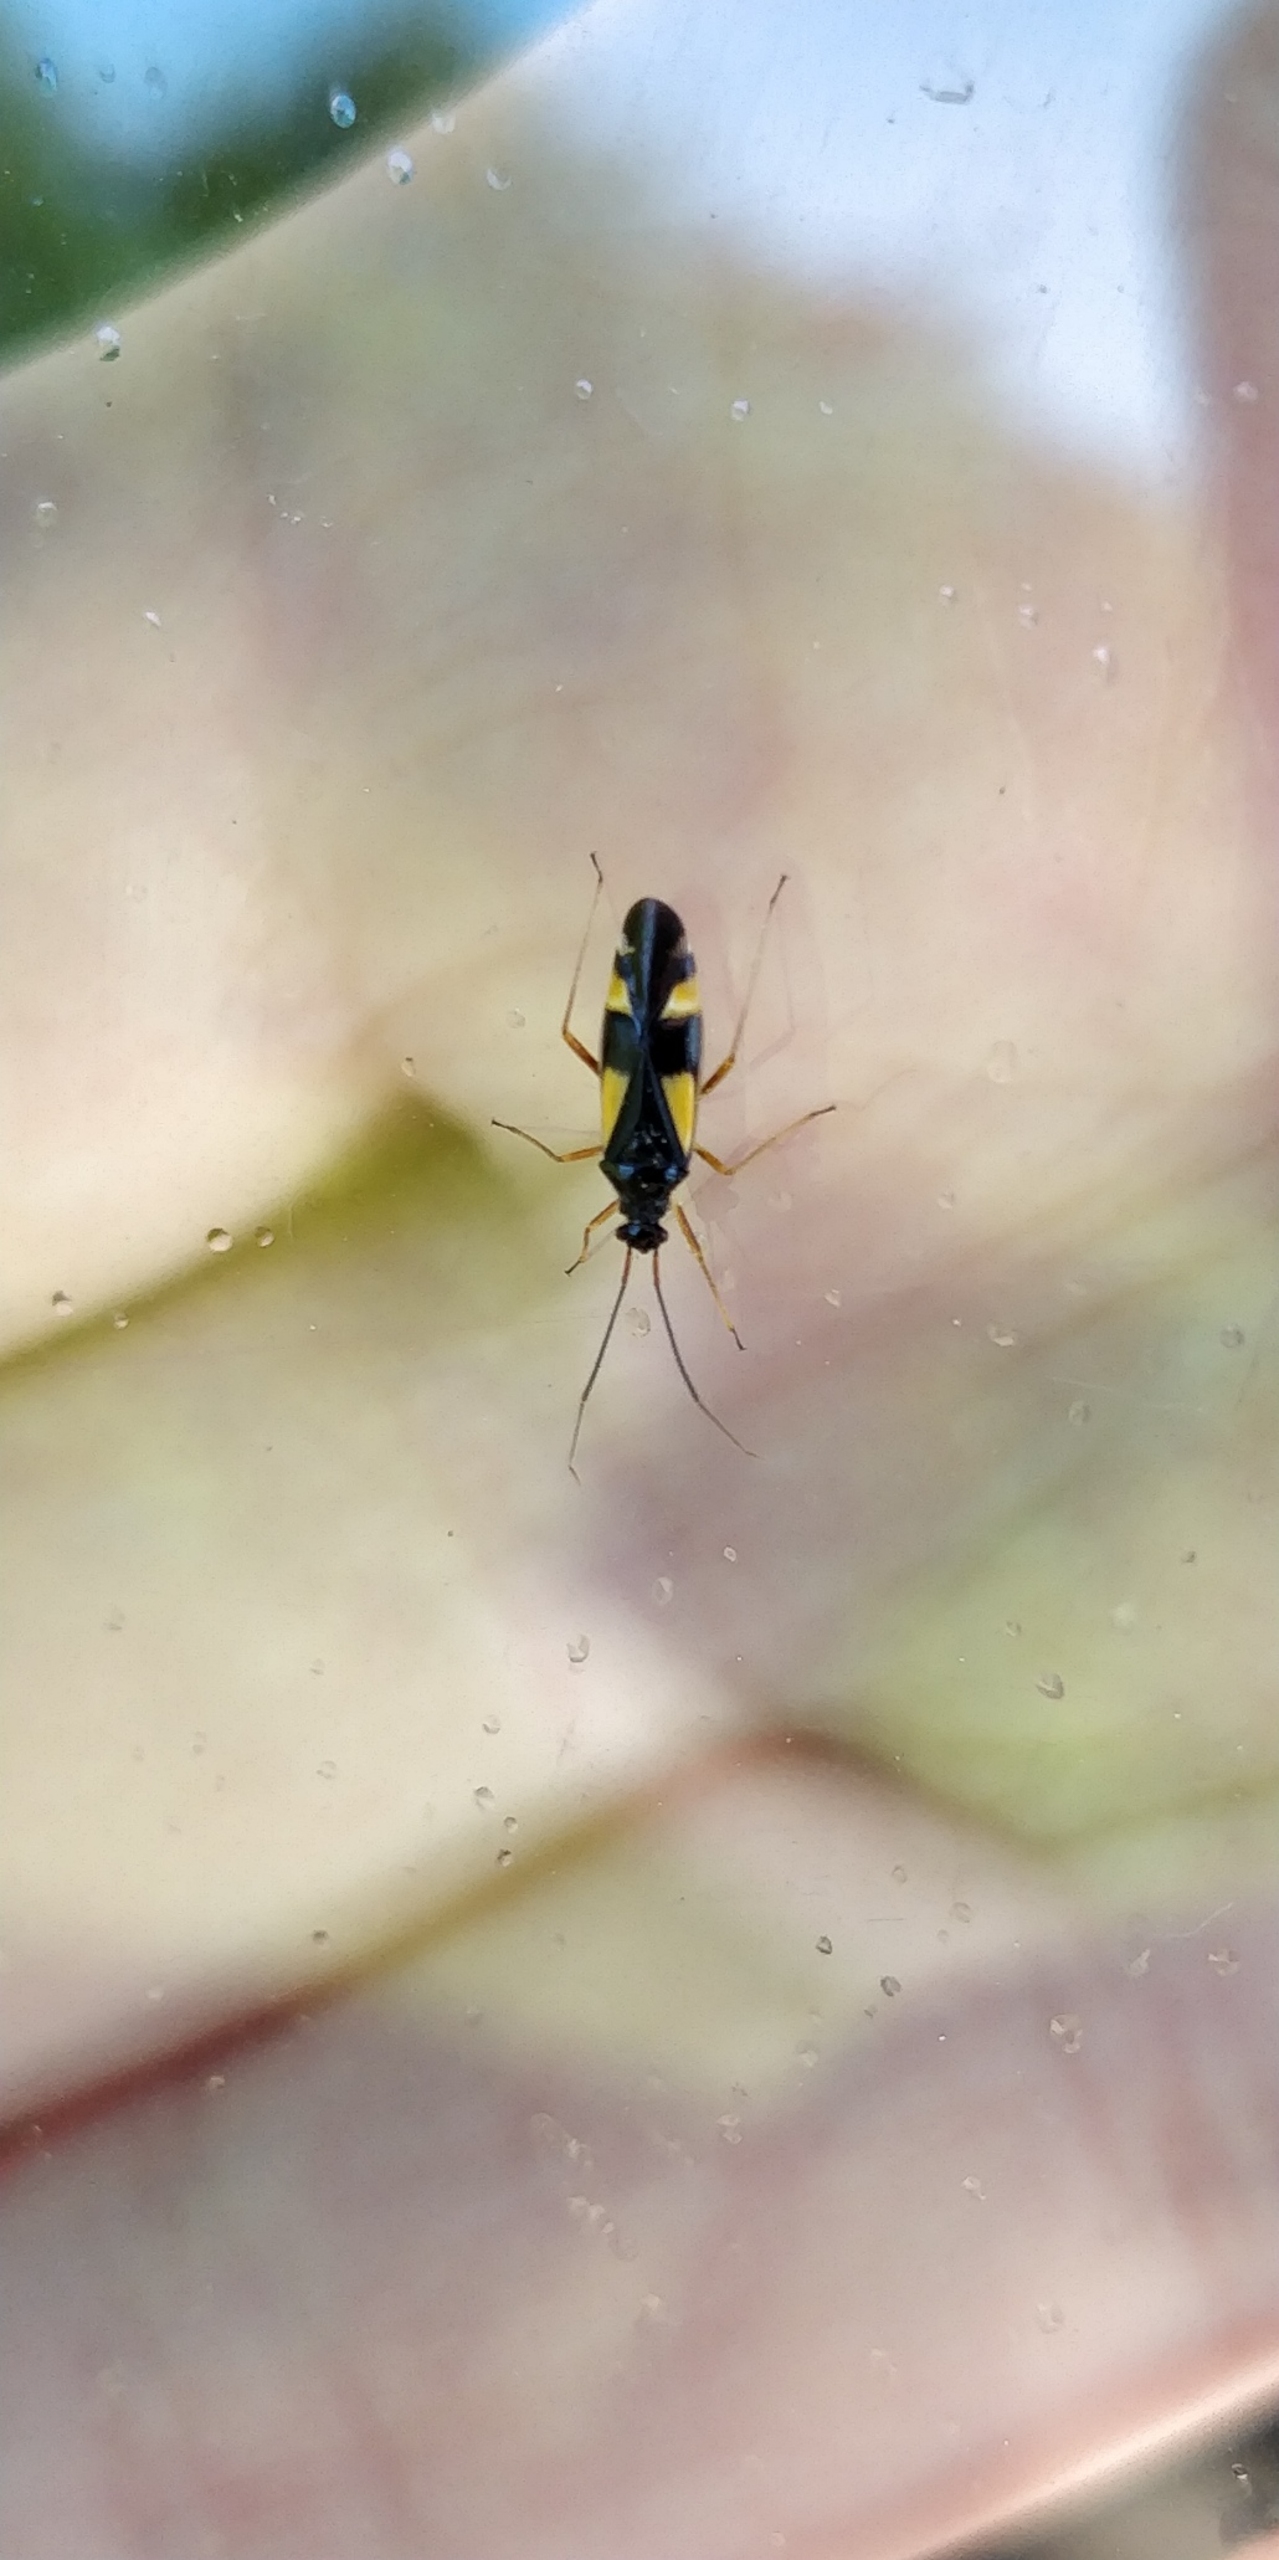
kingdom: Animalia
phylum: Arthropoda
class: Insecta
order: Hemiptera
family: Miridae
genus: Dryophilocoris
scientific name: Dryophilocoris flavoquadrimaculatus
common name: Fireplettet blomstertæge
